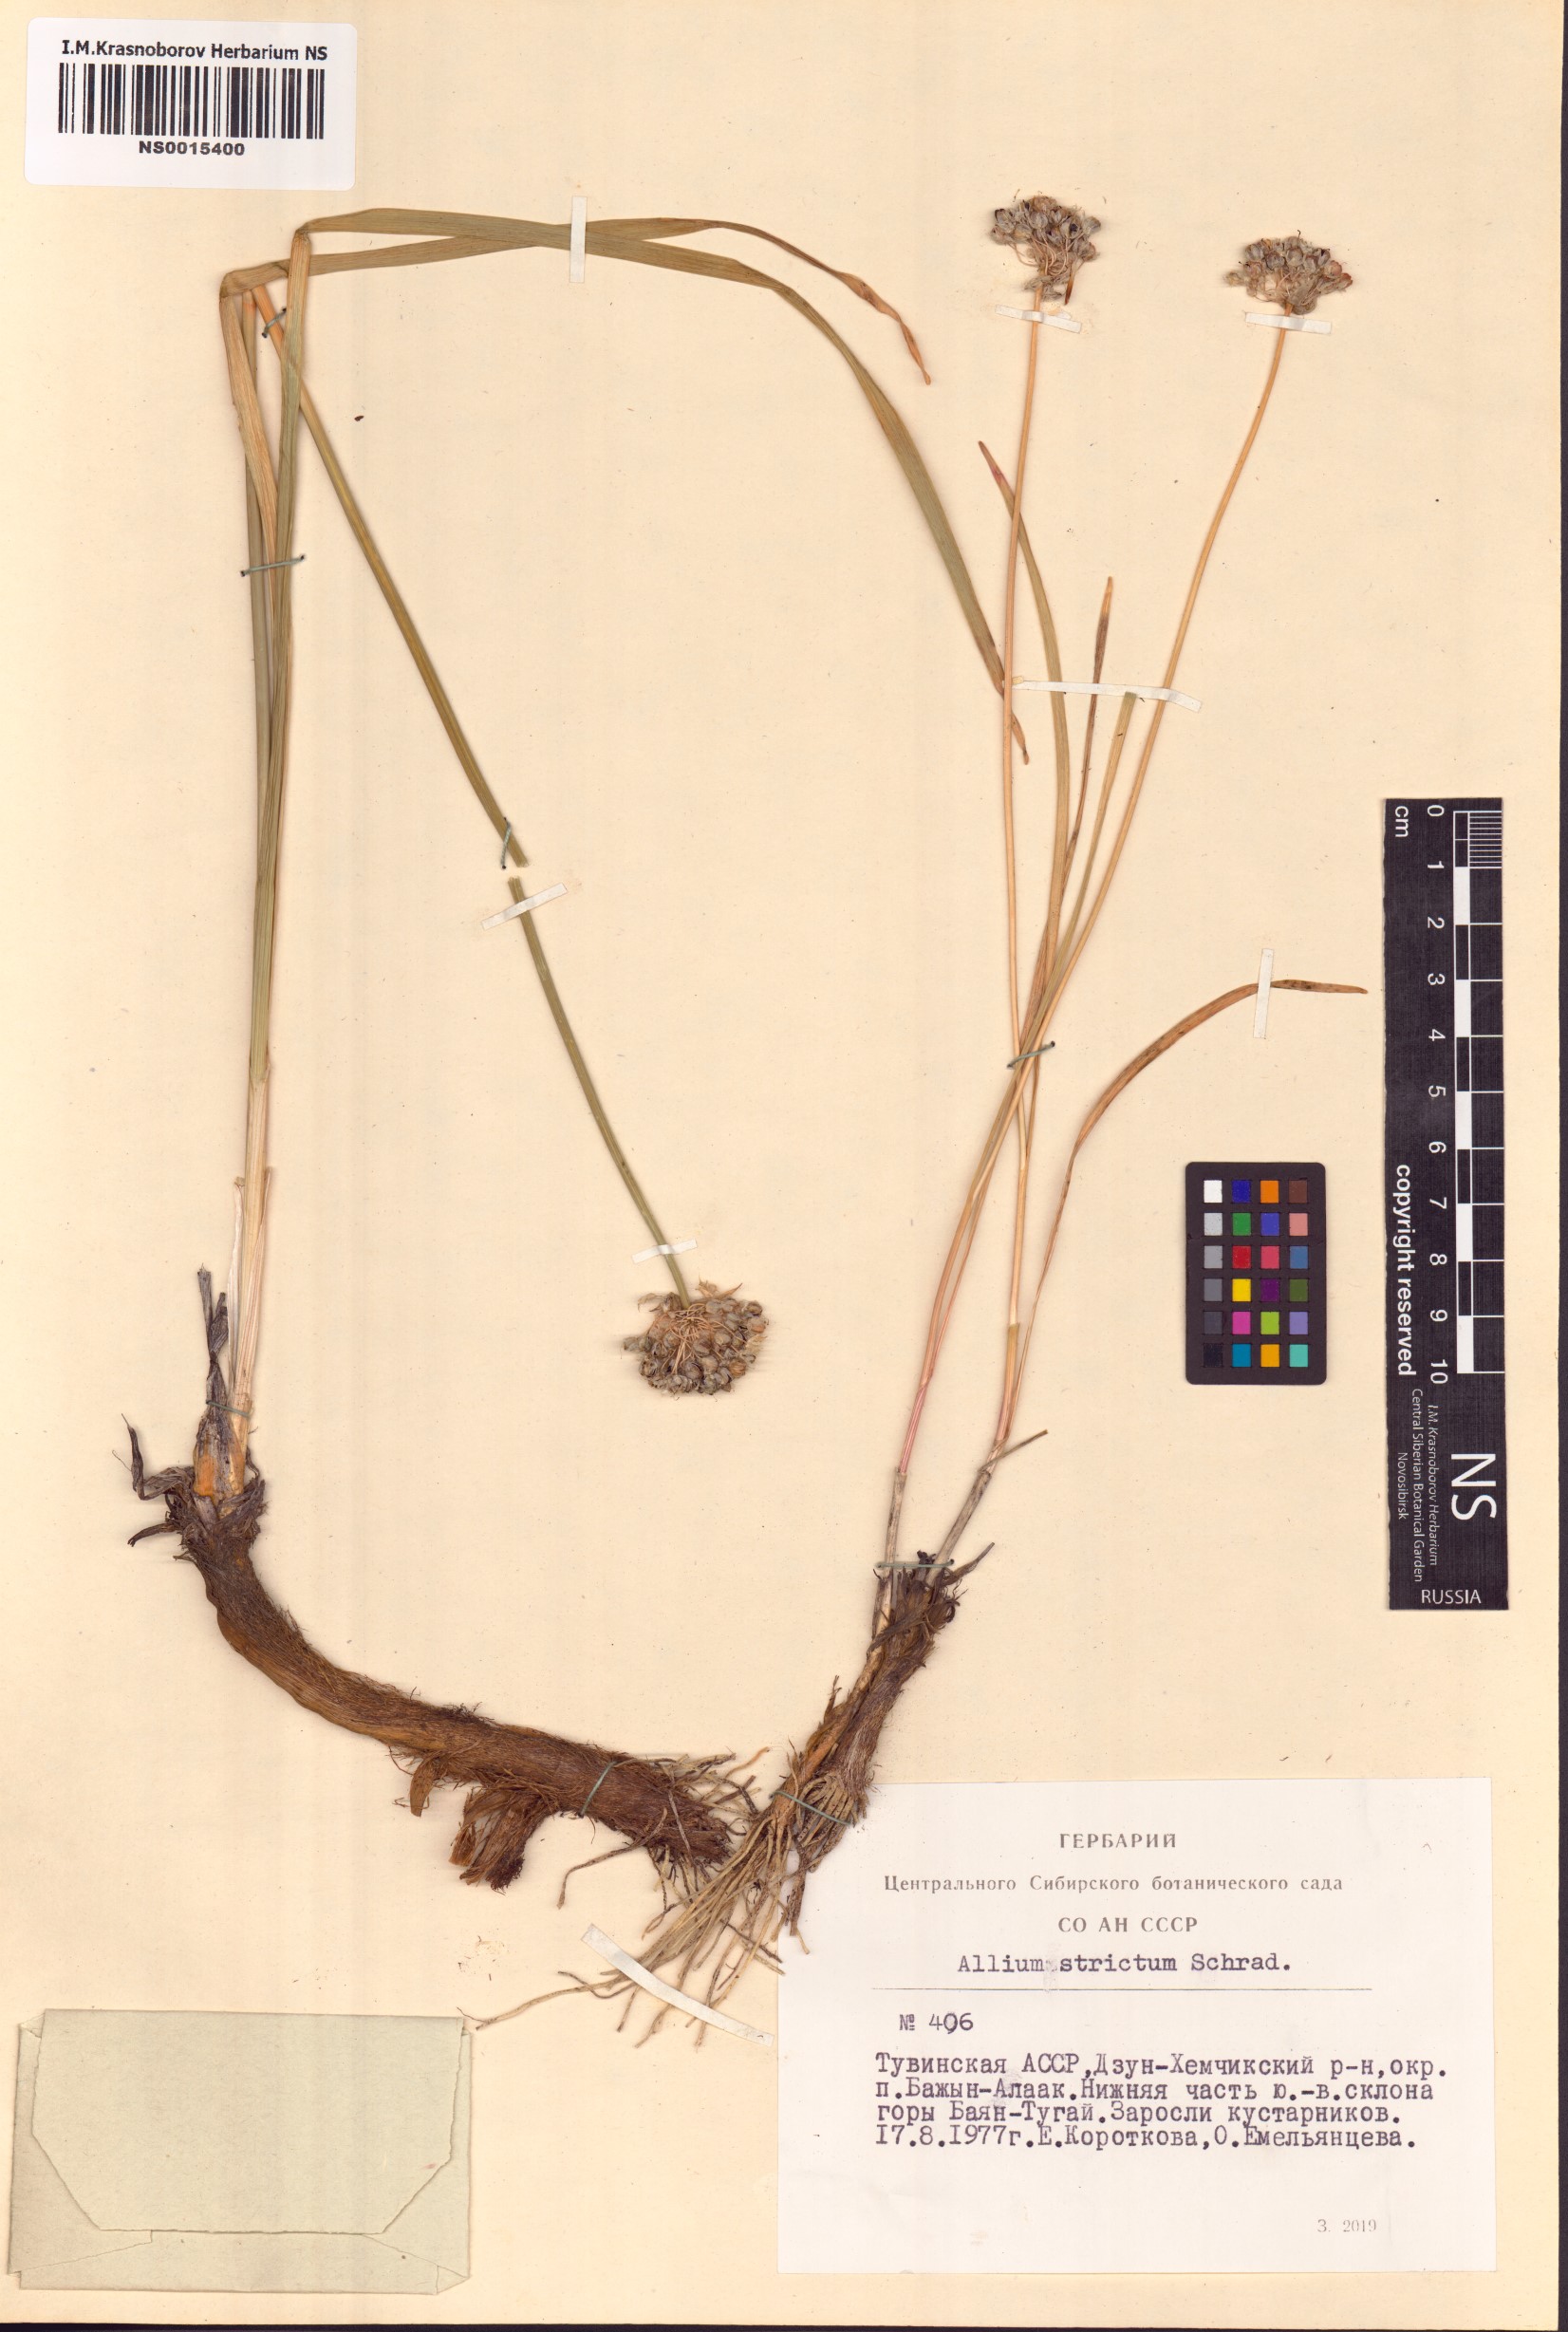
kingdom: Plantae
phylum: Tracheophyta
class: Liliopsida
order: Asparagales
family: Amaryllidaceae
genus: Allium
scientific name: Allium strictum
